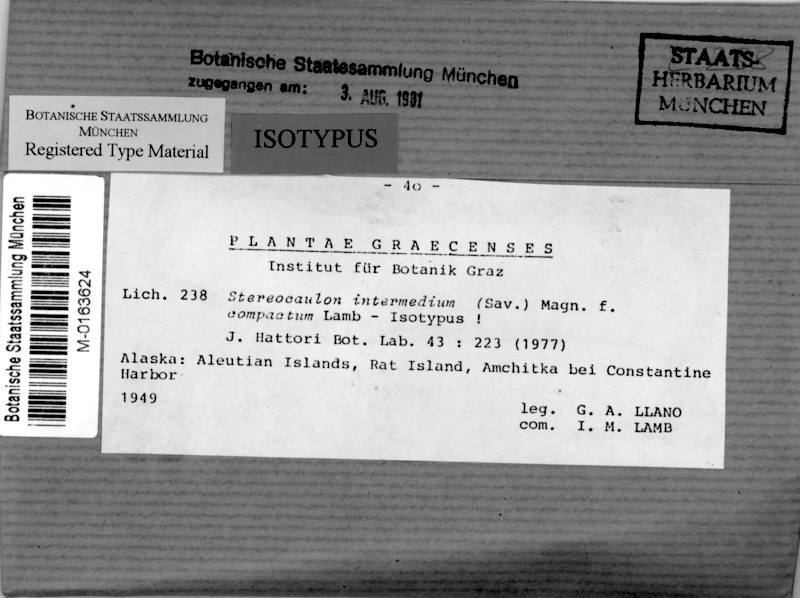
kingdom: Fungi
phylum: Ascomycota
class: Lecanoromycetes
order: Lecanorales
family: Stereocaulaceae
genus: Stereocaulon
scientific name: Stereocaulon compactum
